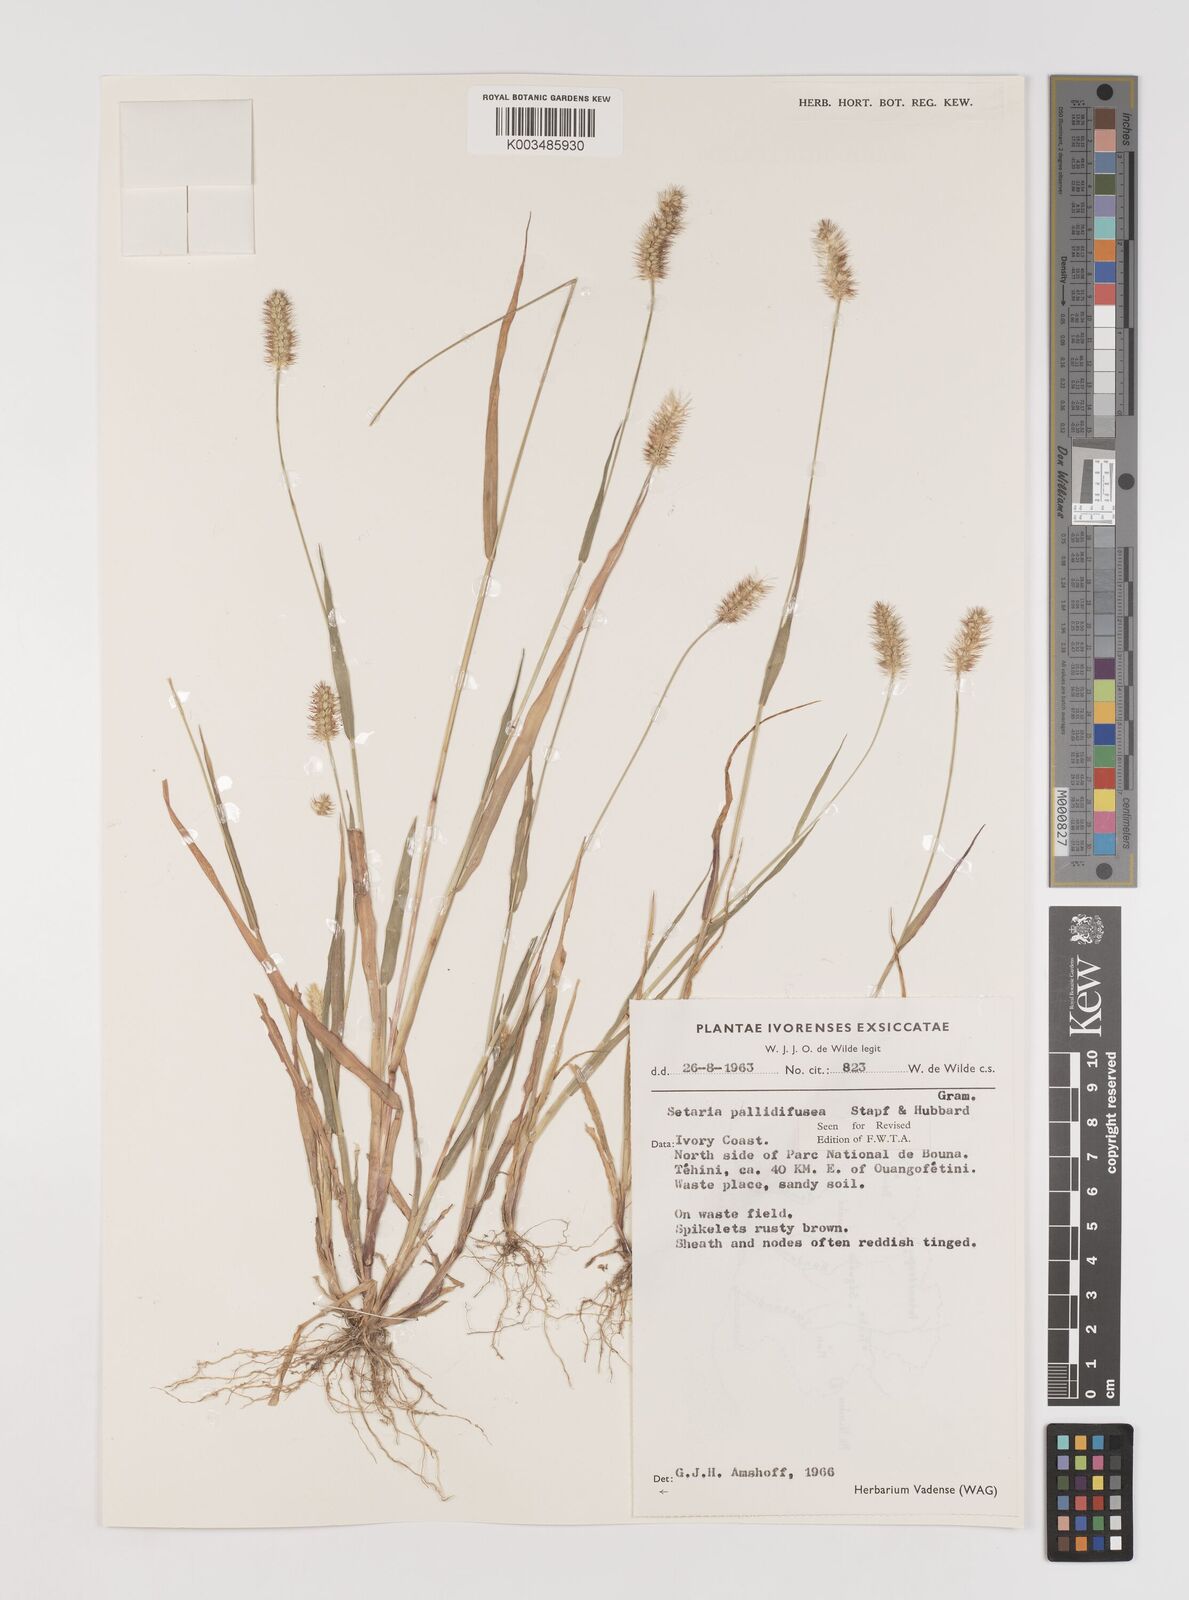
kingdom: Plantae
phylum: Tracheophyta
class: Liliopsida
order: Poales
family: Poaceae
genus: Setaria
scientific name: Setaria pumila
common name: Yellow bristle-grass
